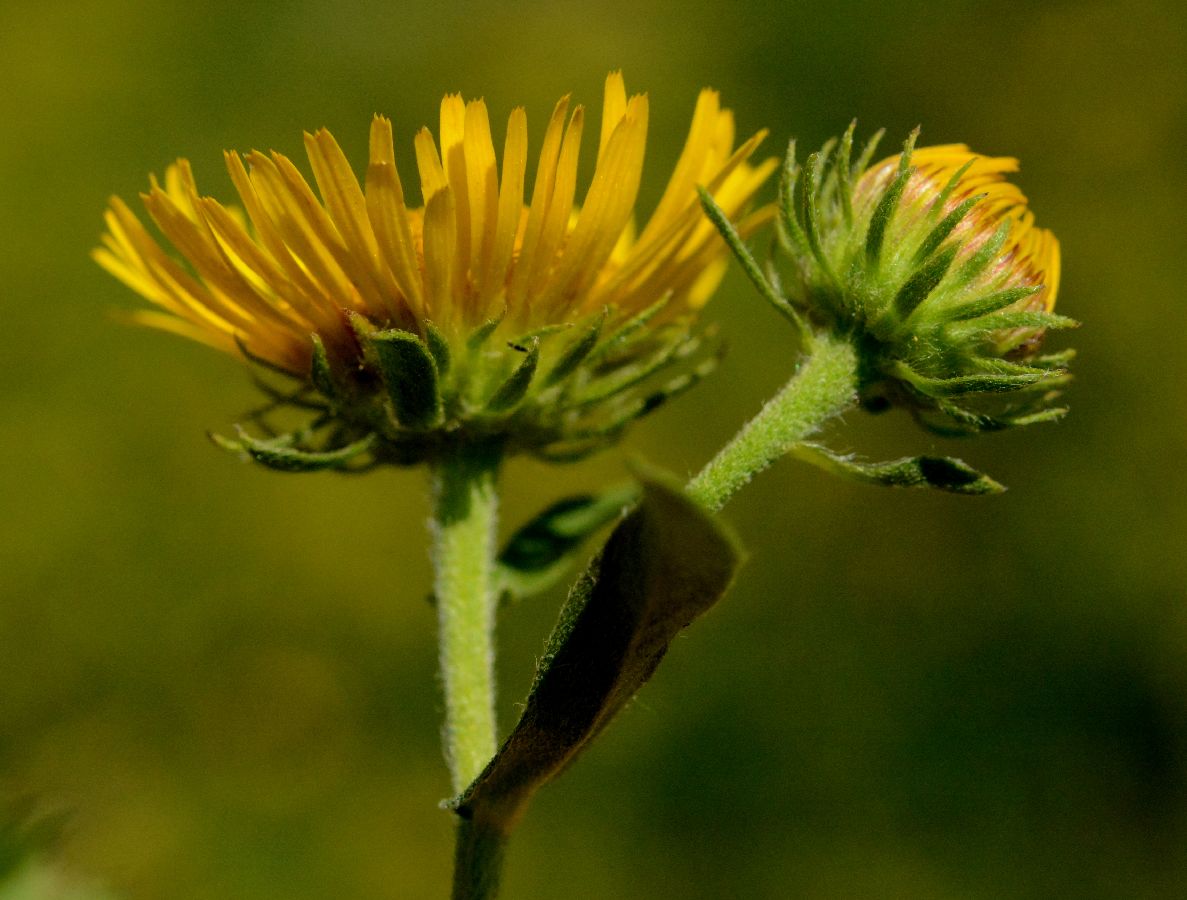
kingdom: Plantae
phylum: Tracheophyta
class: Magnoliopsida
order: Asterales
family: Asteraceae
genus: Pentanema
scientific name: Pentanema britannicum
